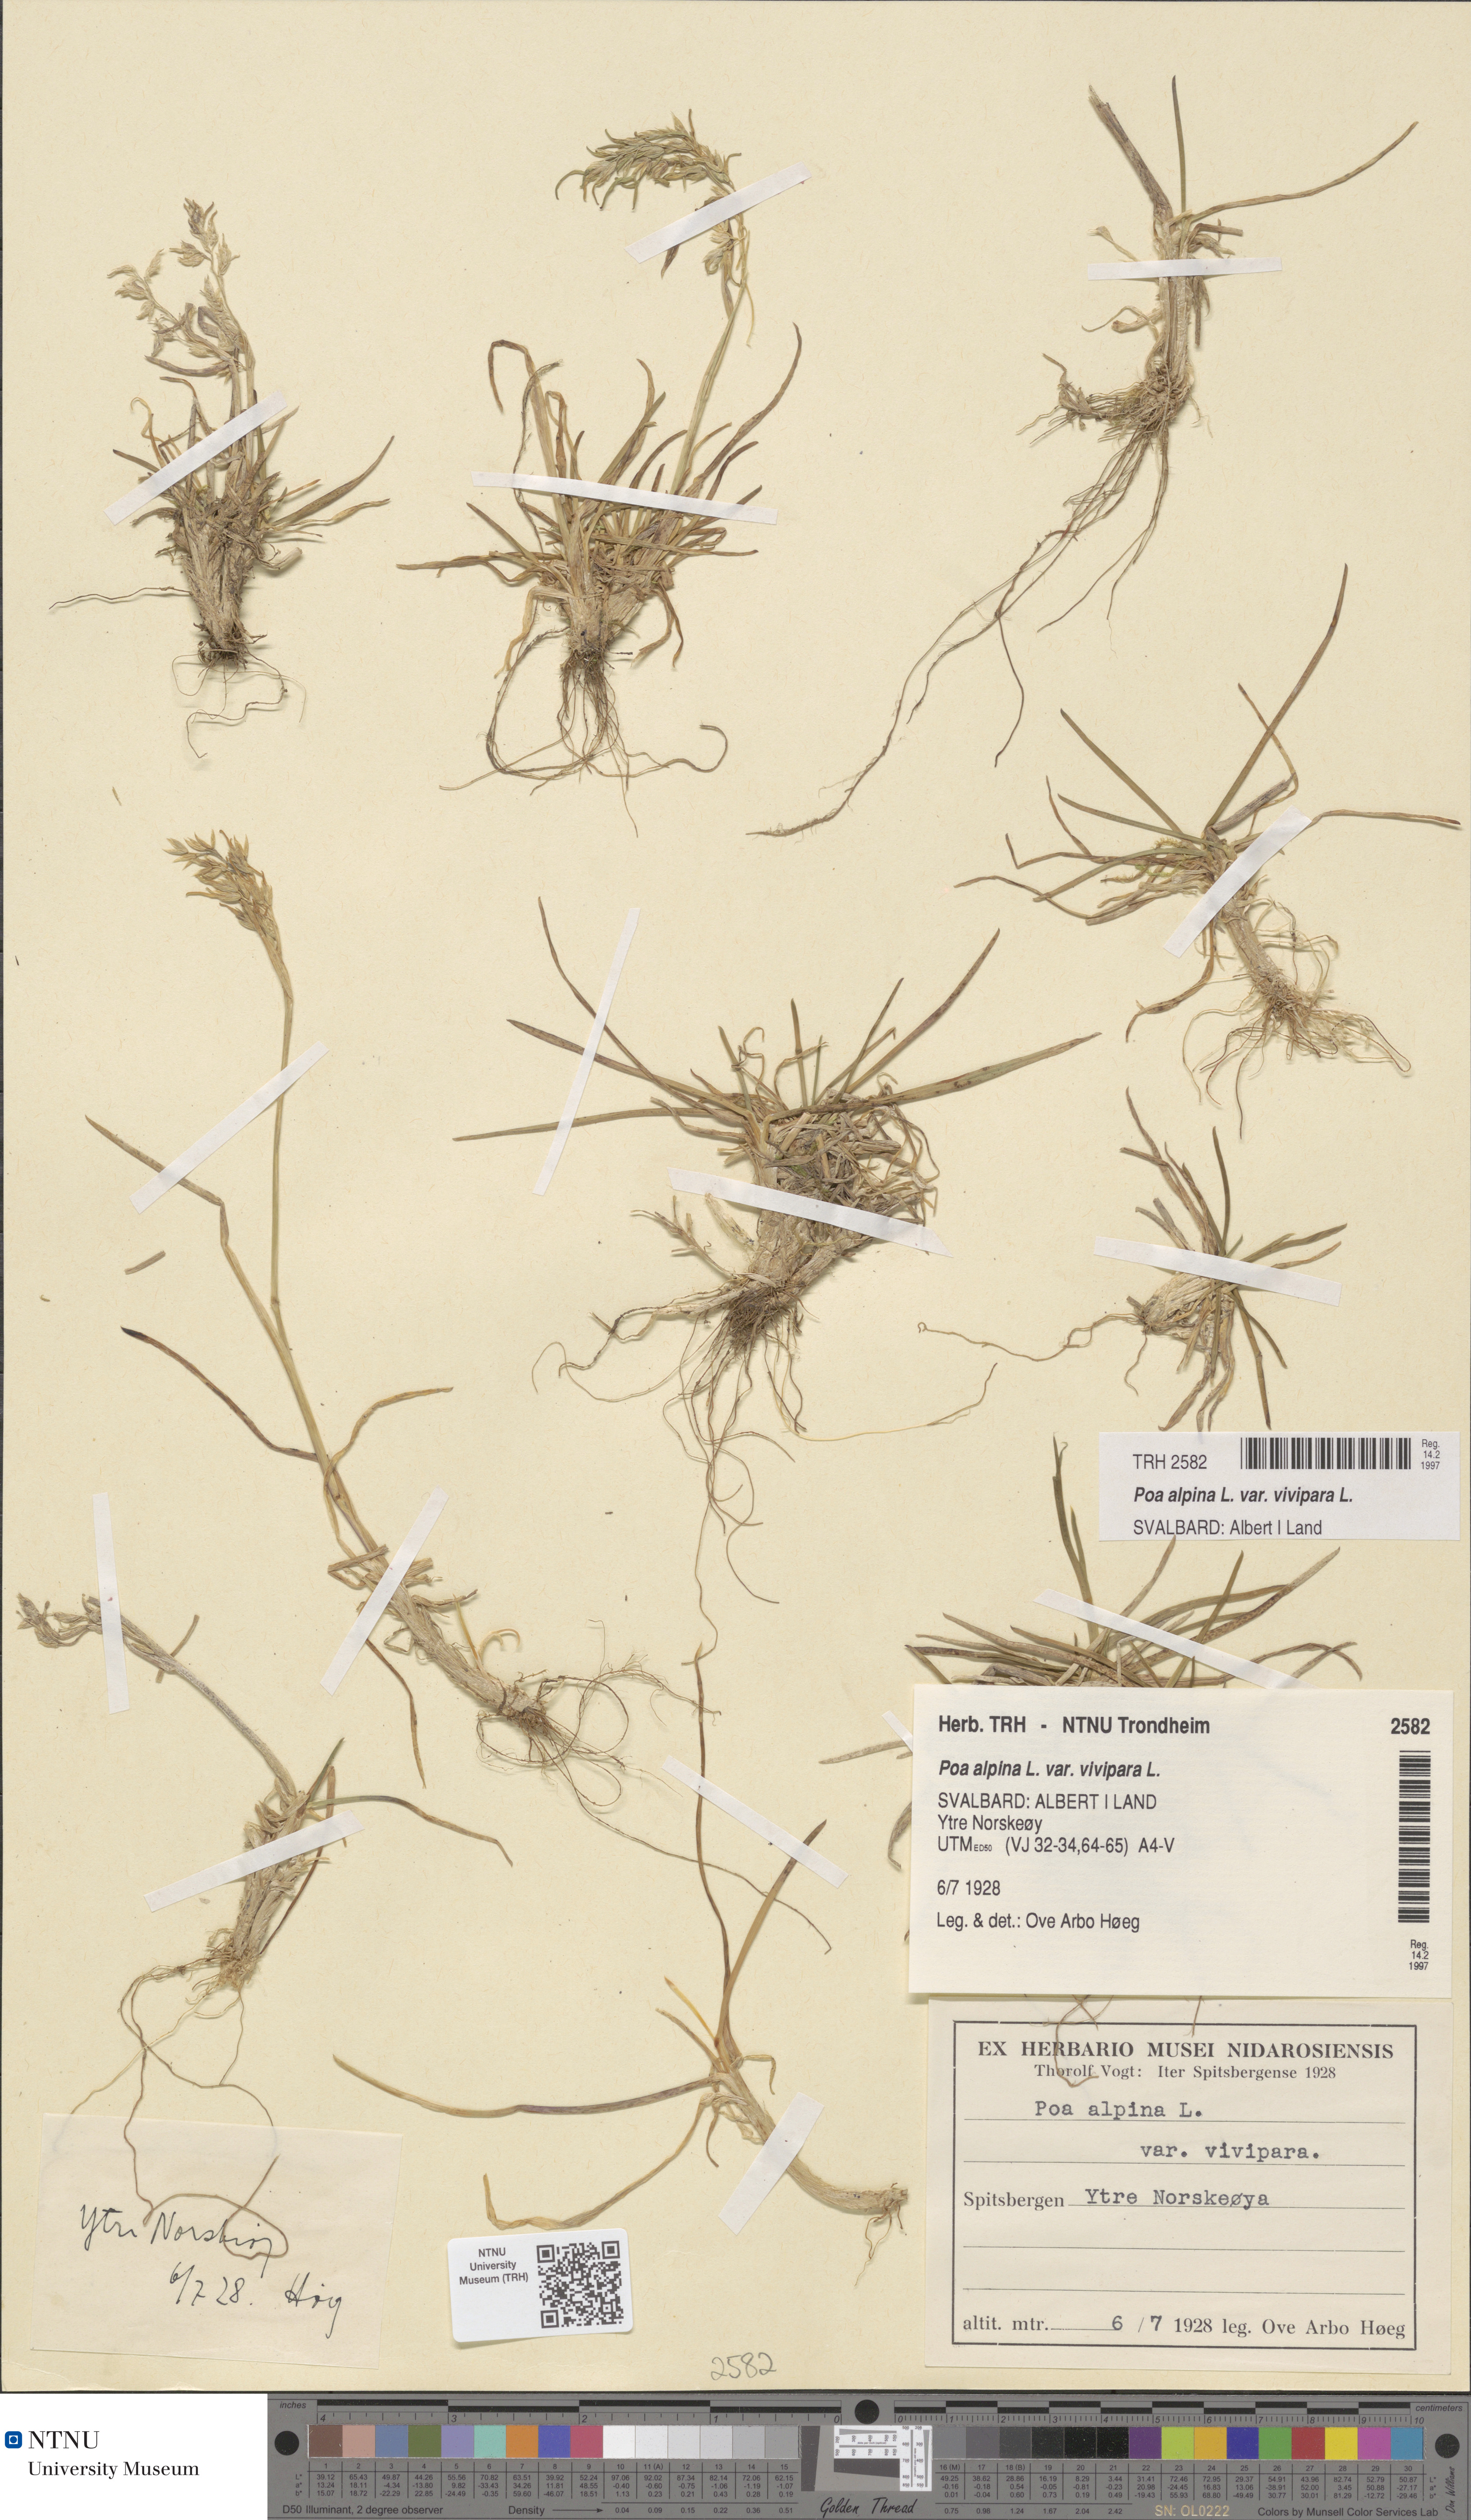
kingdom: Plantae
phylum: Tracheophyta
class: Liliopsida
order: Poales
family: Poaceae
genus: Poa
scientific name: Poa alpina
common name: Alpine bluegrass
